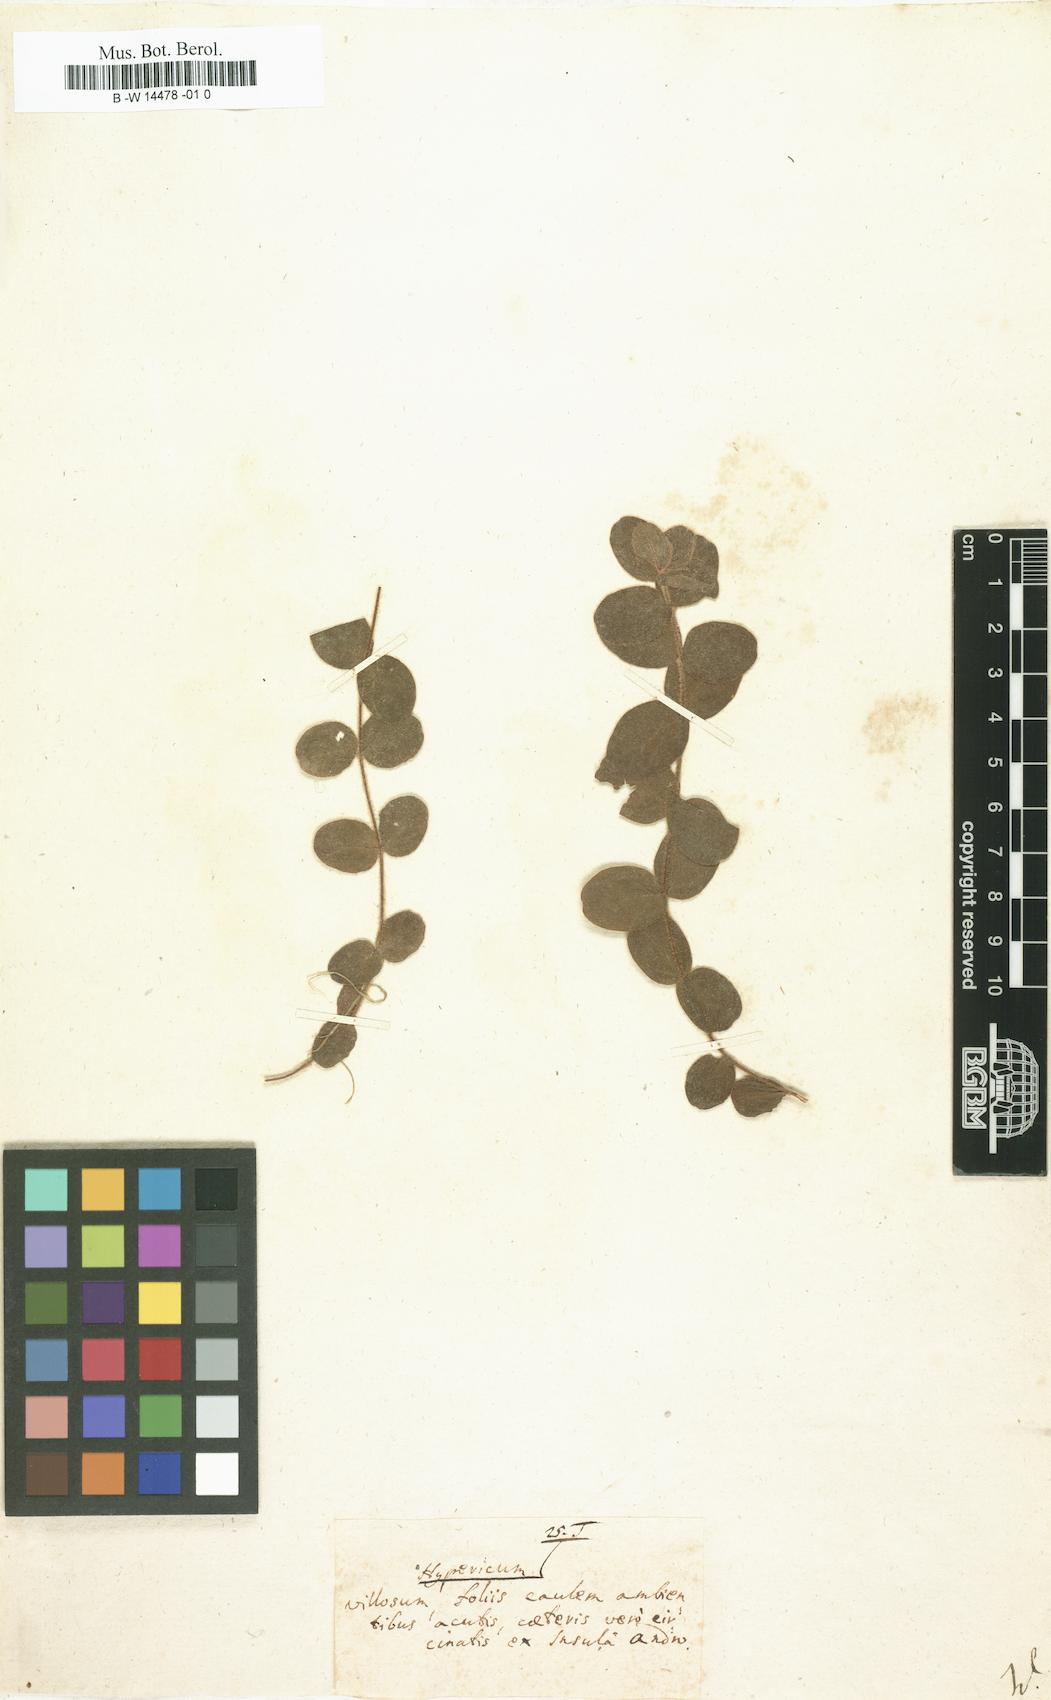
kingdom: Plantae
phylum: Tracheophyta
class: Magnoliopsida
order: Malpighiales
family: Hypericaceae
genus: Hypericum
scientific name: Hypericum
